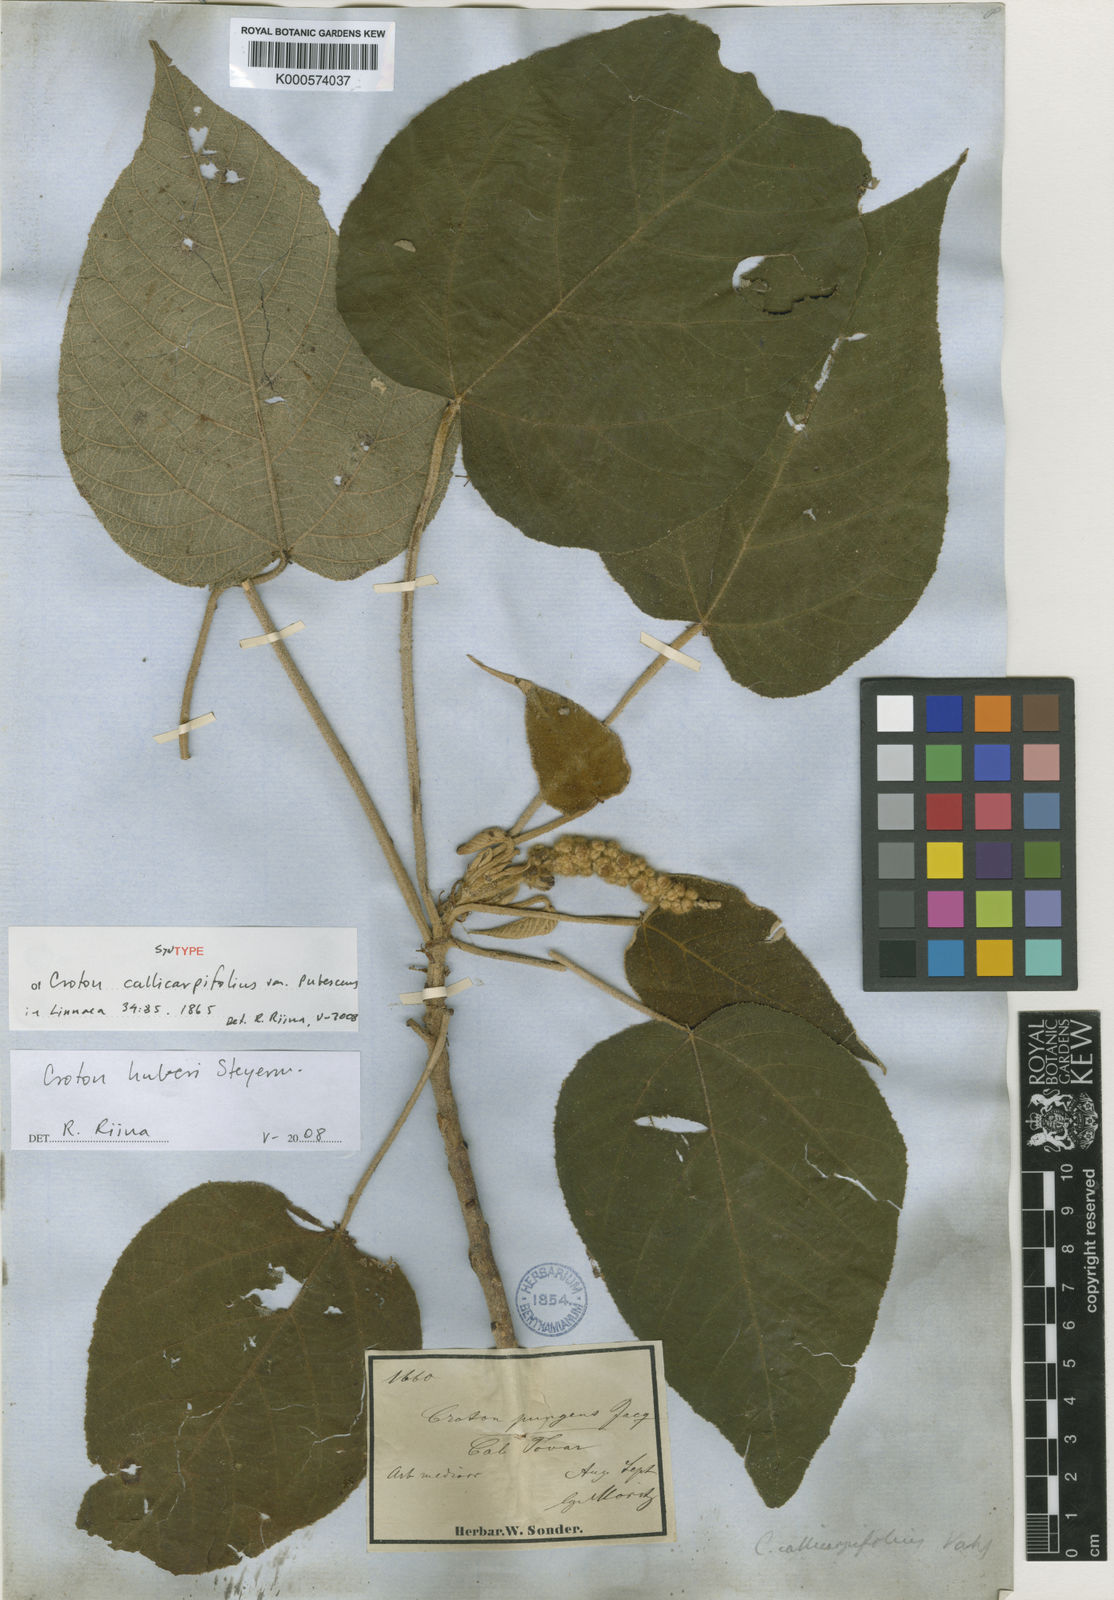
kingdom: Plantae
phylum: Tracheophyta
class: Magnoliopsida
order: Malpighiales
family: Euphorbiaceae
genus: Croton
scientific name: Croton callicarpifolius
